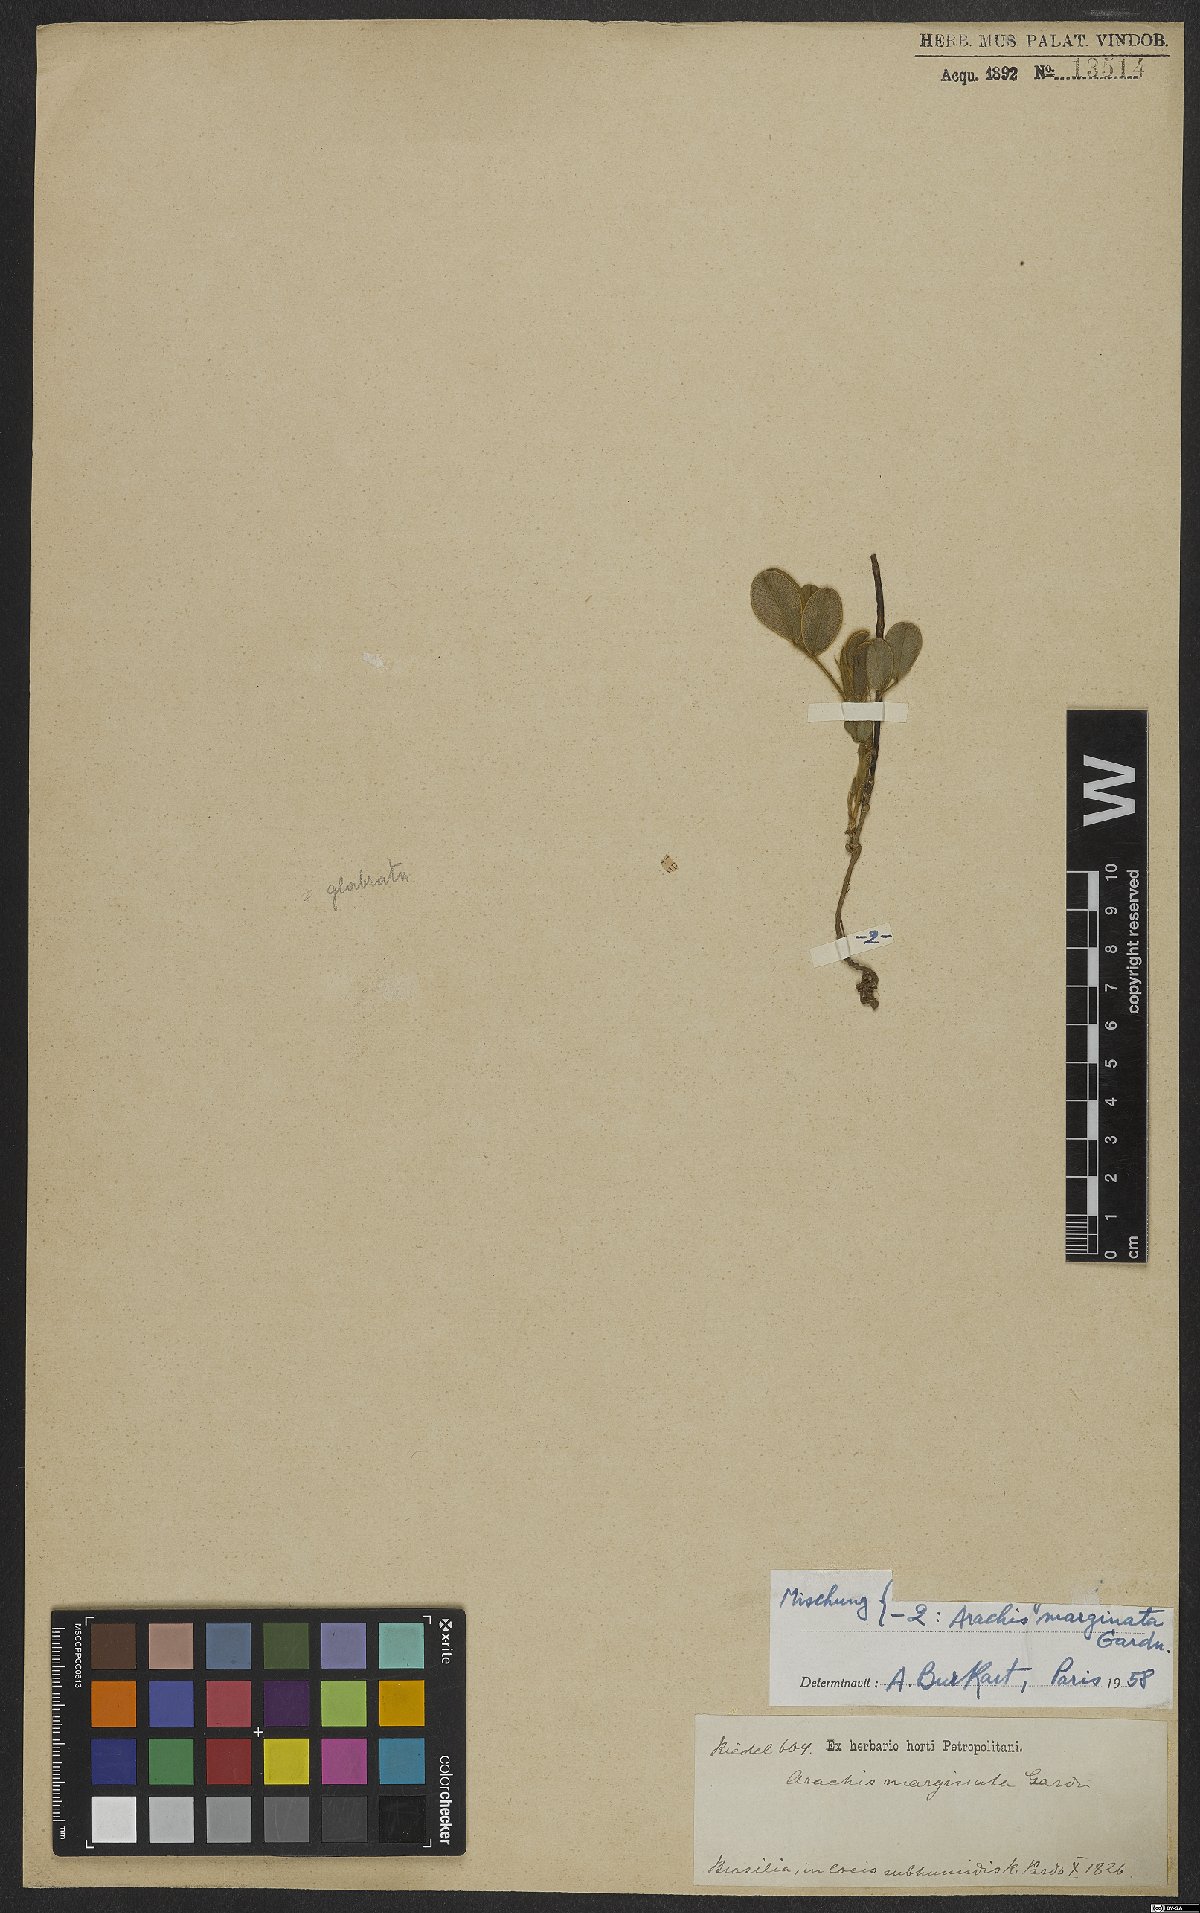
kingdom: Plantae
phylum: Tracheophyta
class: Magnoliopsida
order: Fabales
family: Fabaceae
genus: Arachis
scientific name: Arachis marginata
